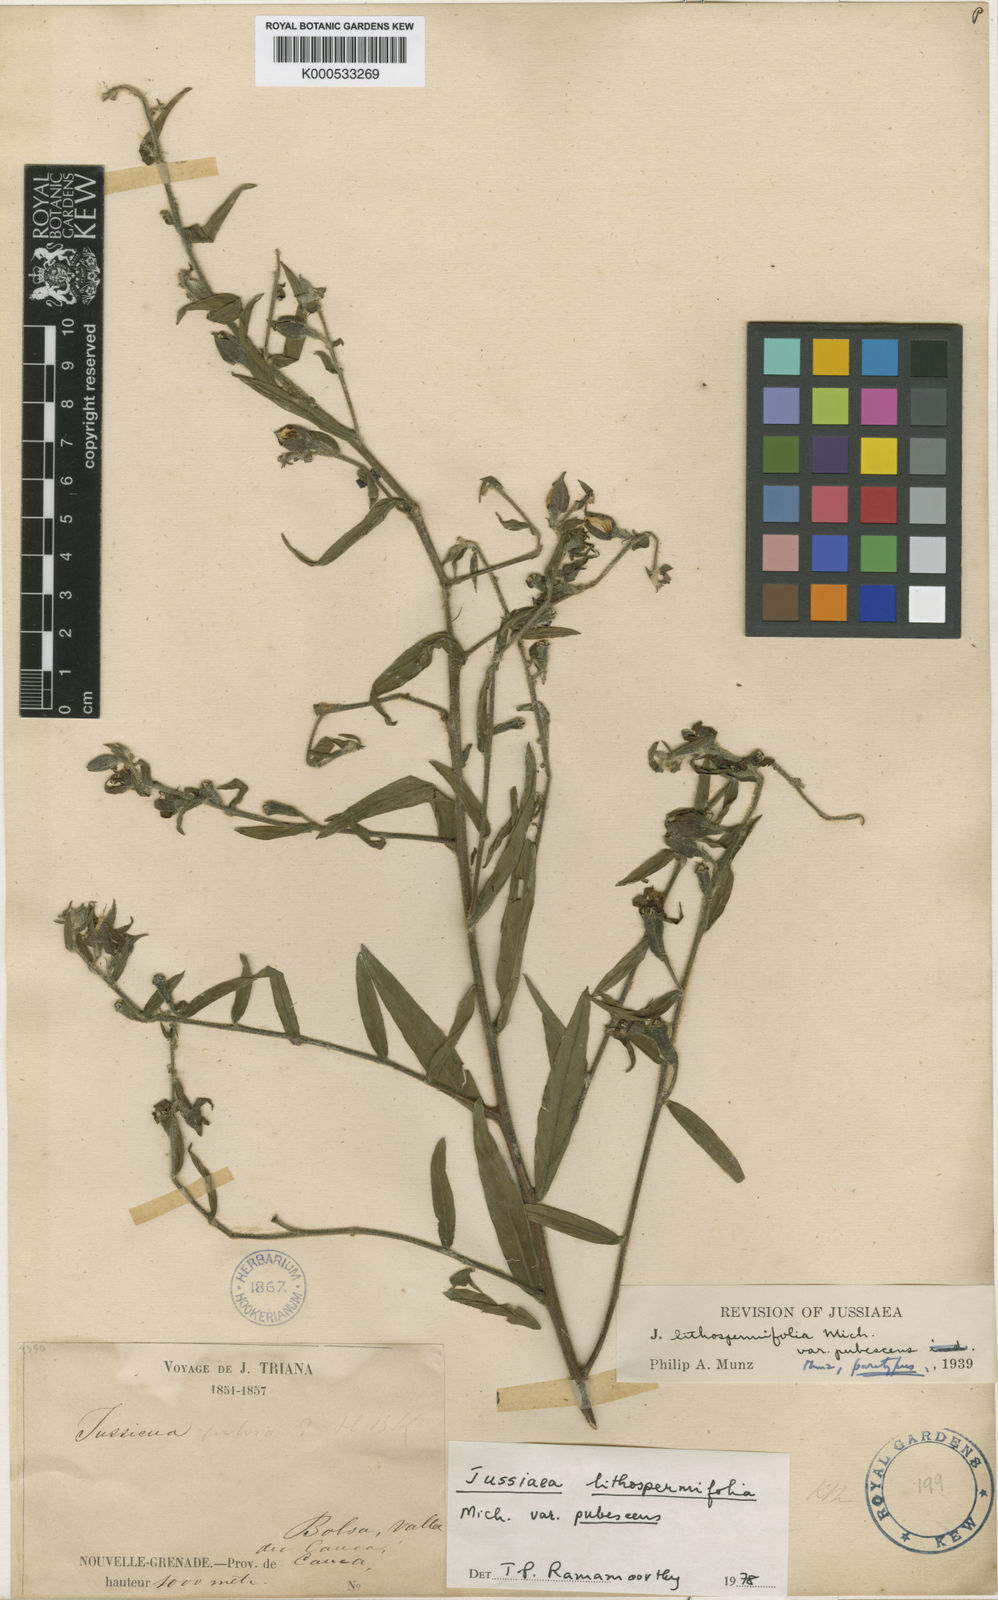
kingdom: Plantae
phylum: Tracheophyta
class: Magnoliopsida
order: Myrtales
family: Onagraceae
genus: Ludwigia
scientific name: Ludwigia rigida
